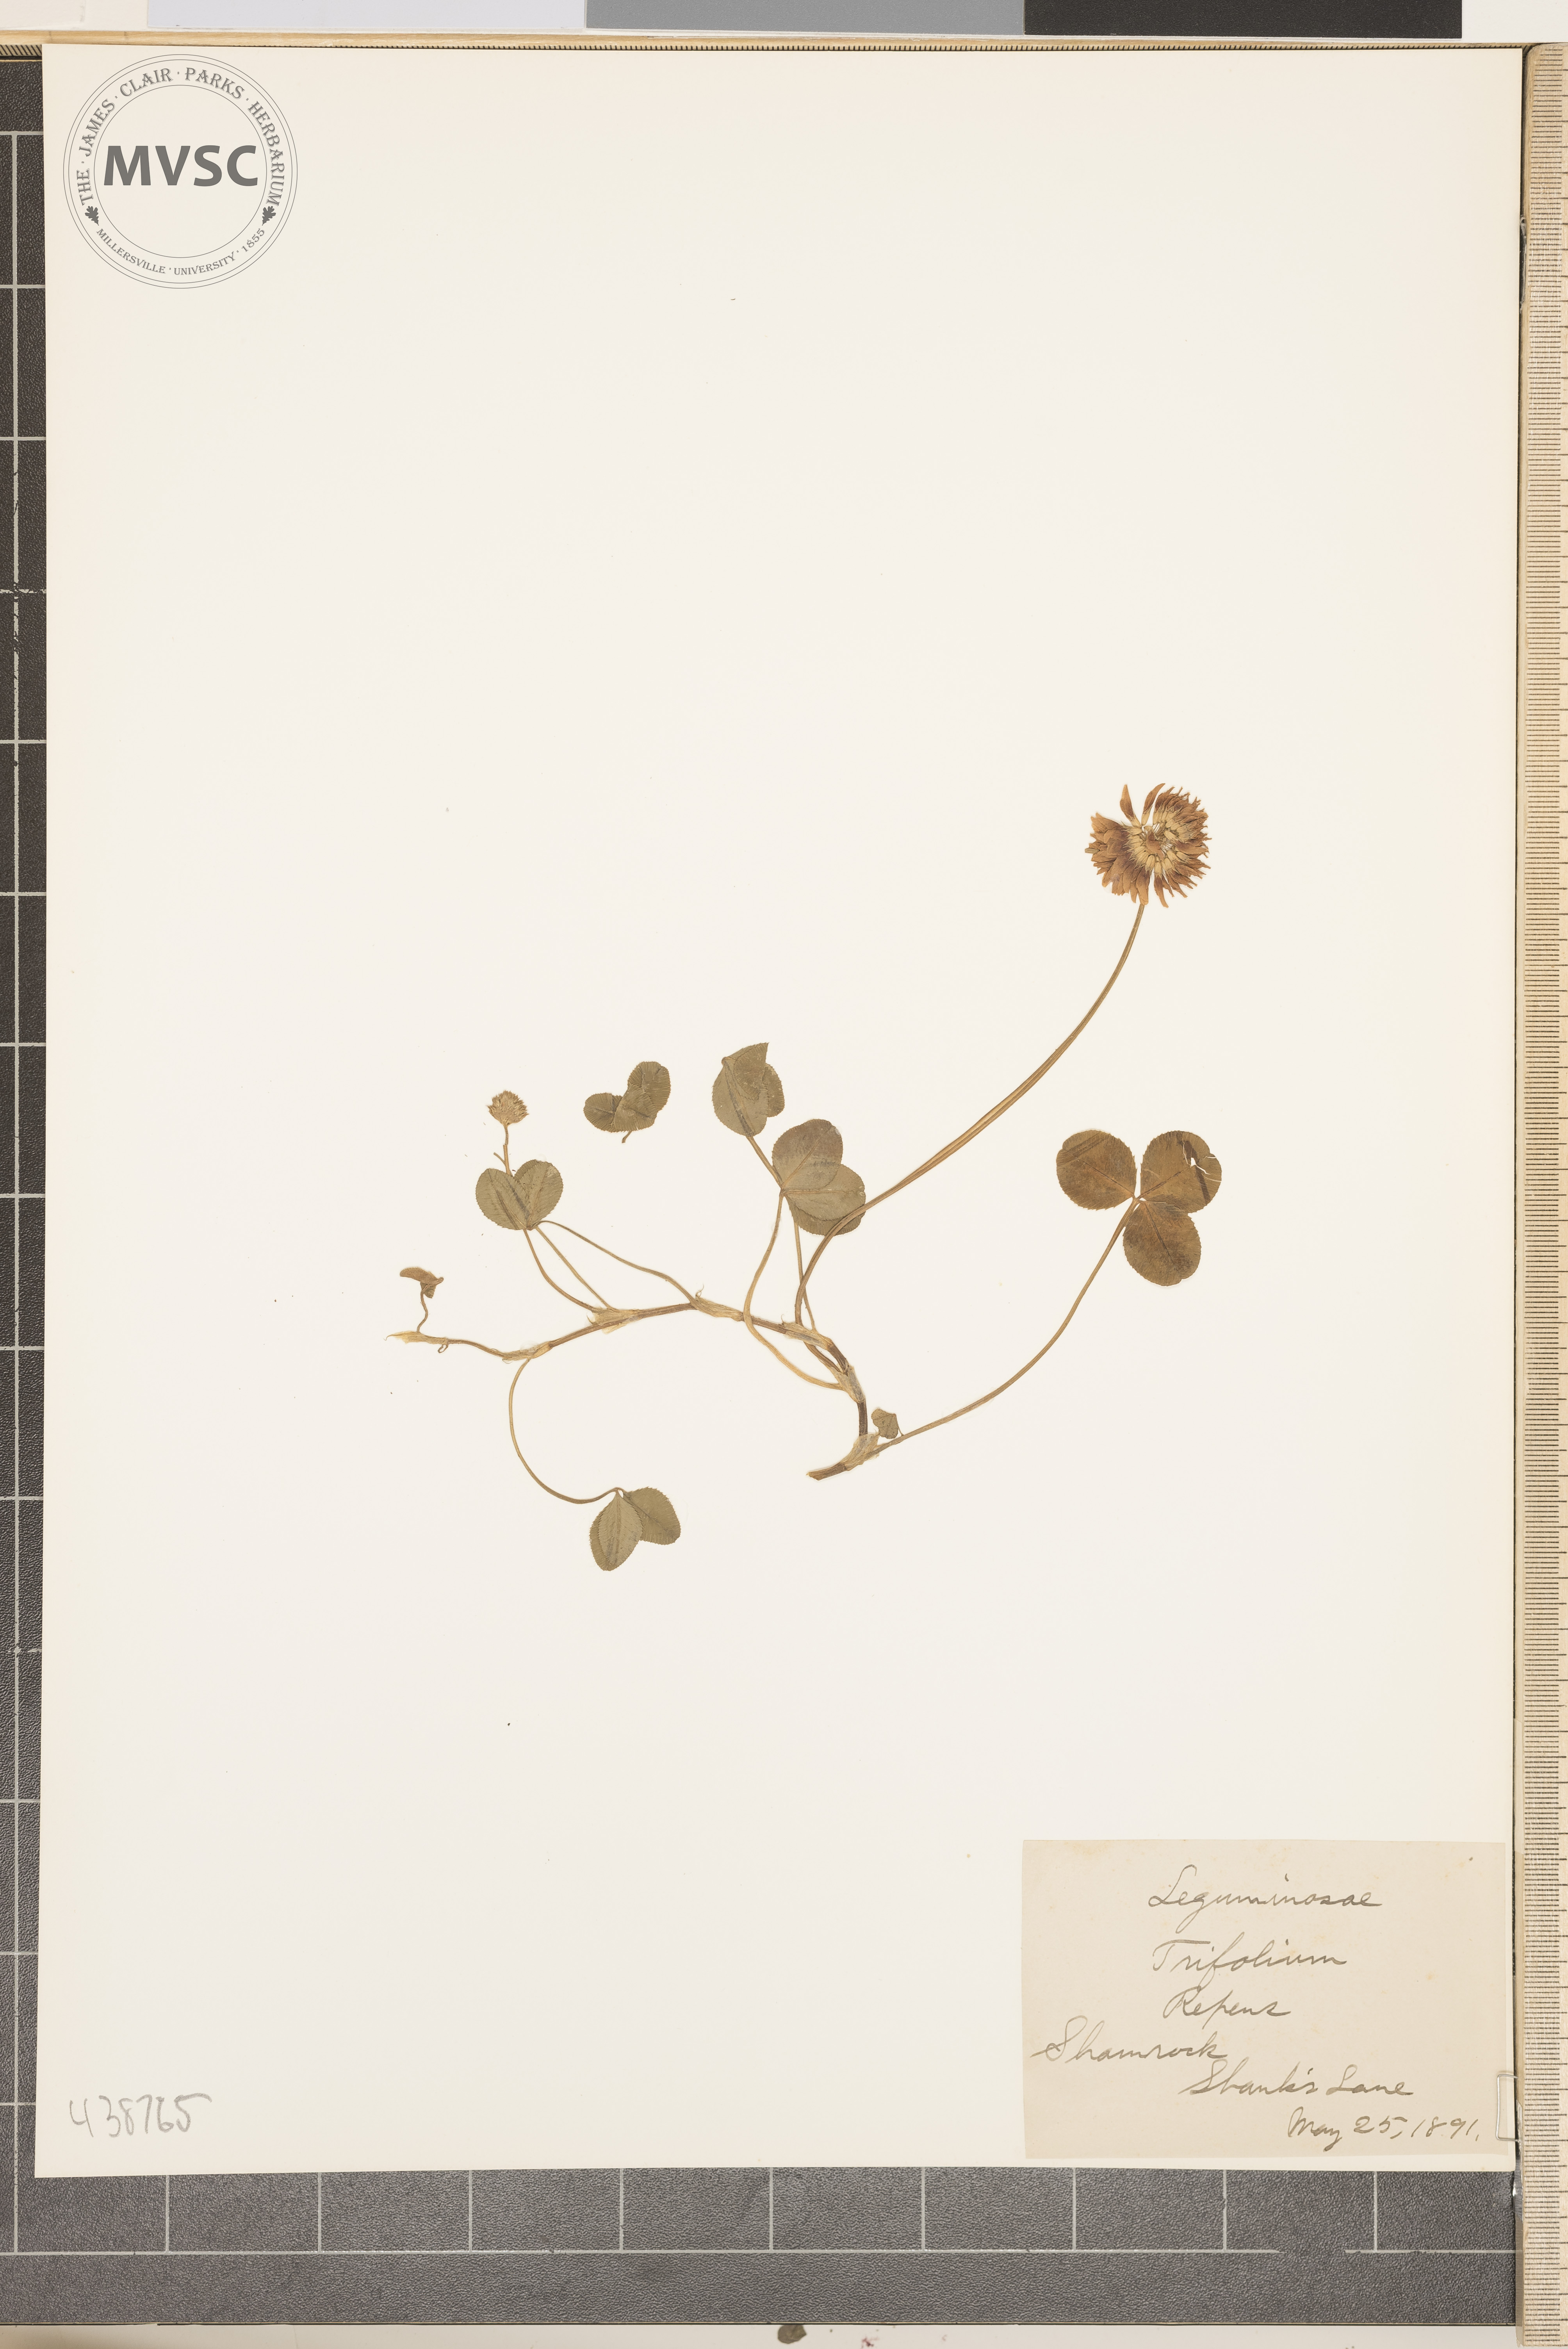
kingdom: Plantae
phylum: Tracheophyta
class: Magnoliopsida
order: Fabales
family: Fabaceae
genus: Trifolium
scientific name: Trifolium repens
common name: Shamrock
